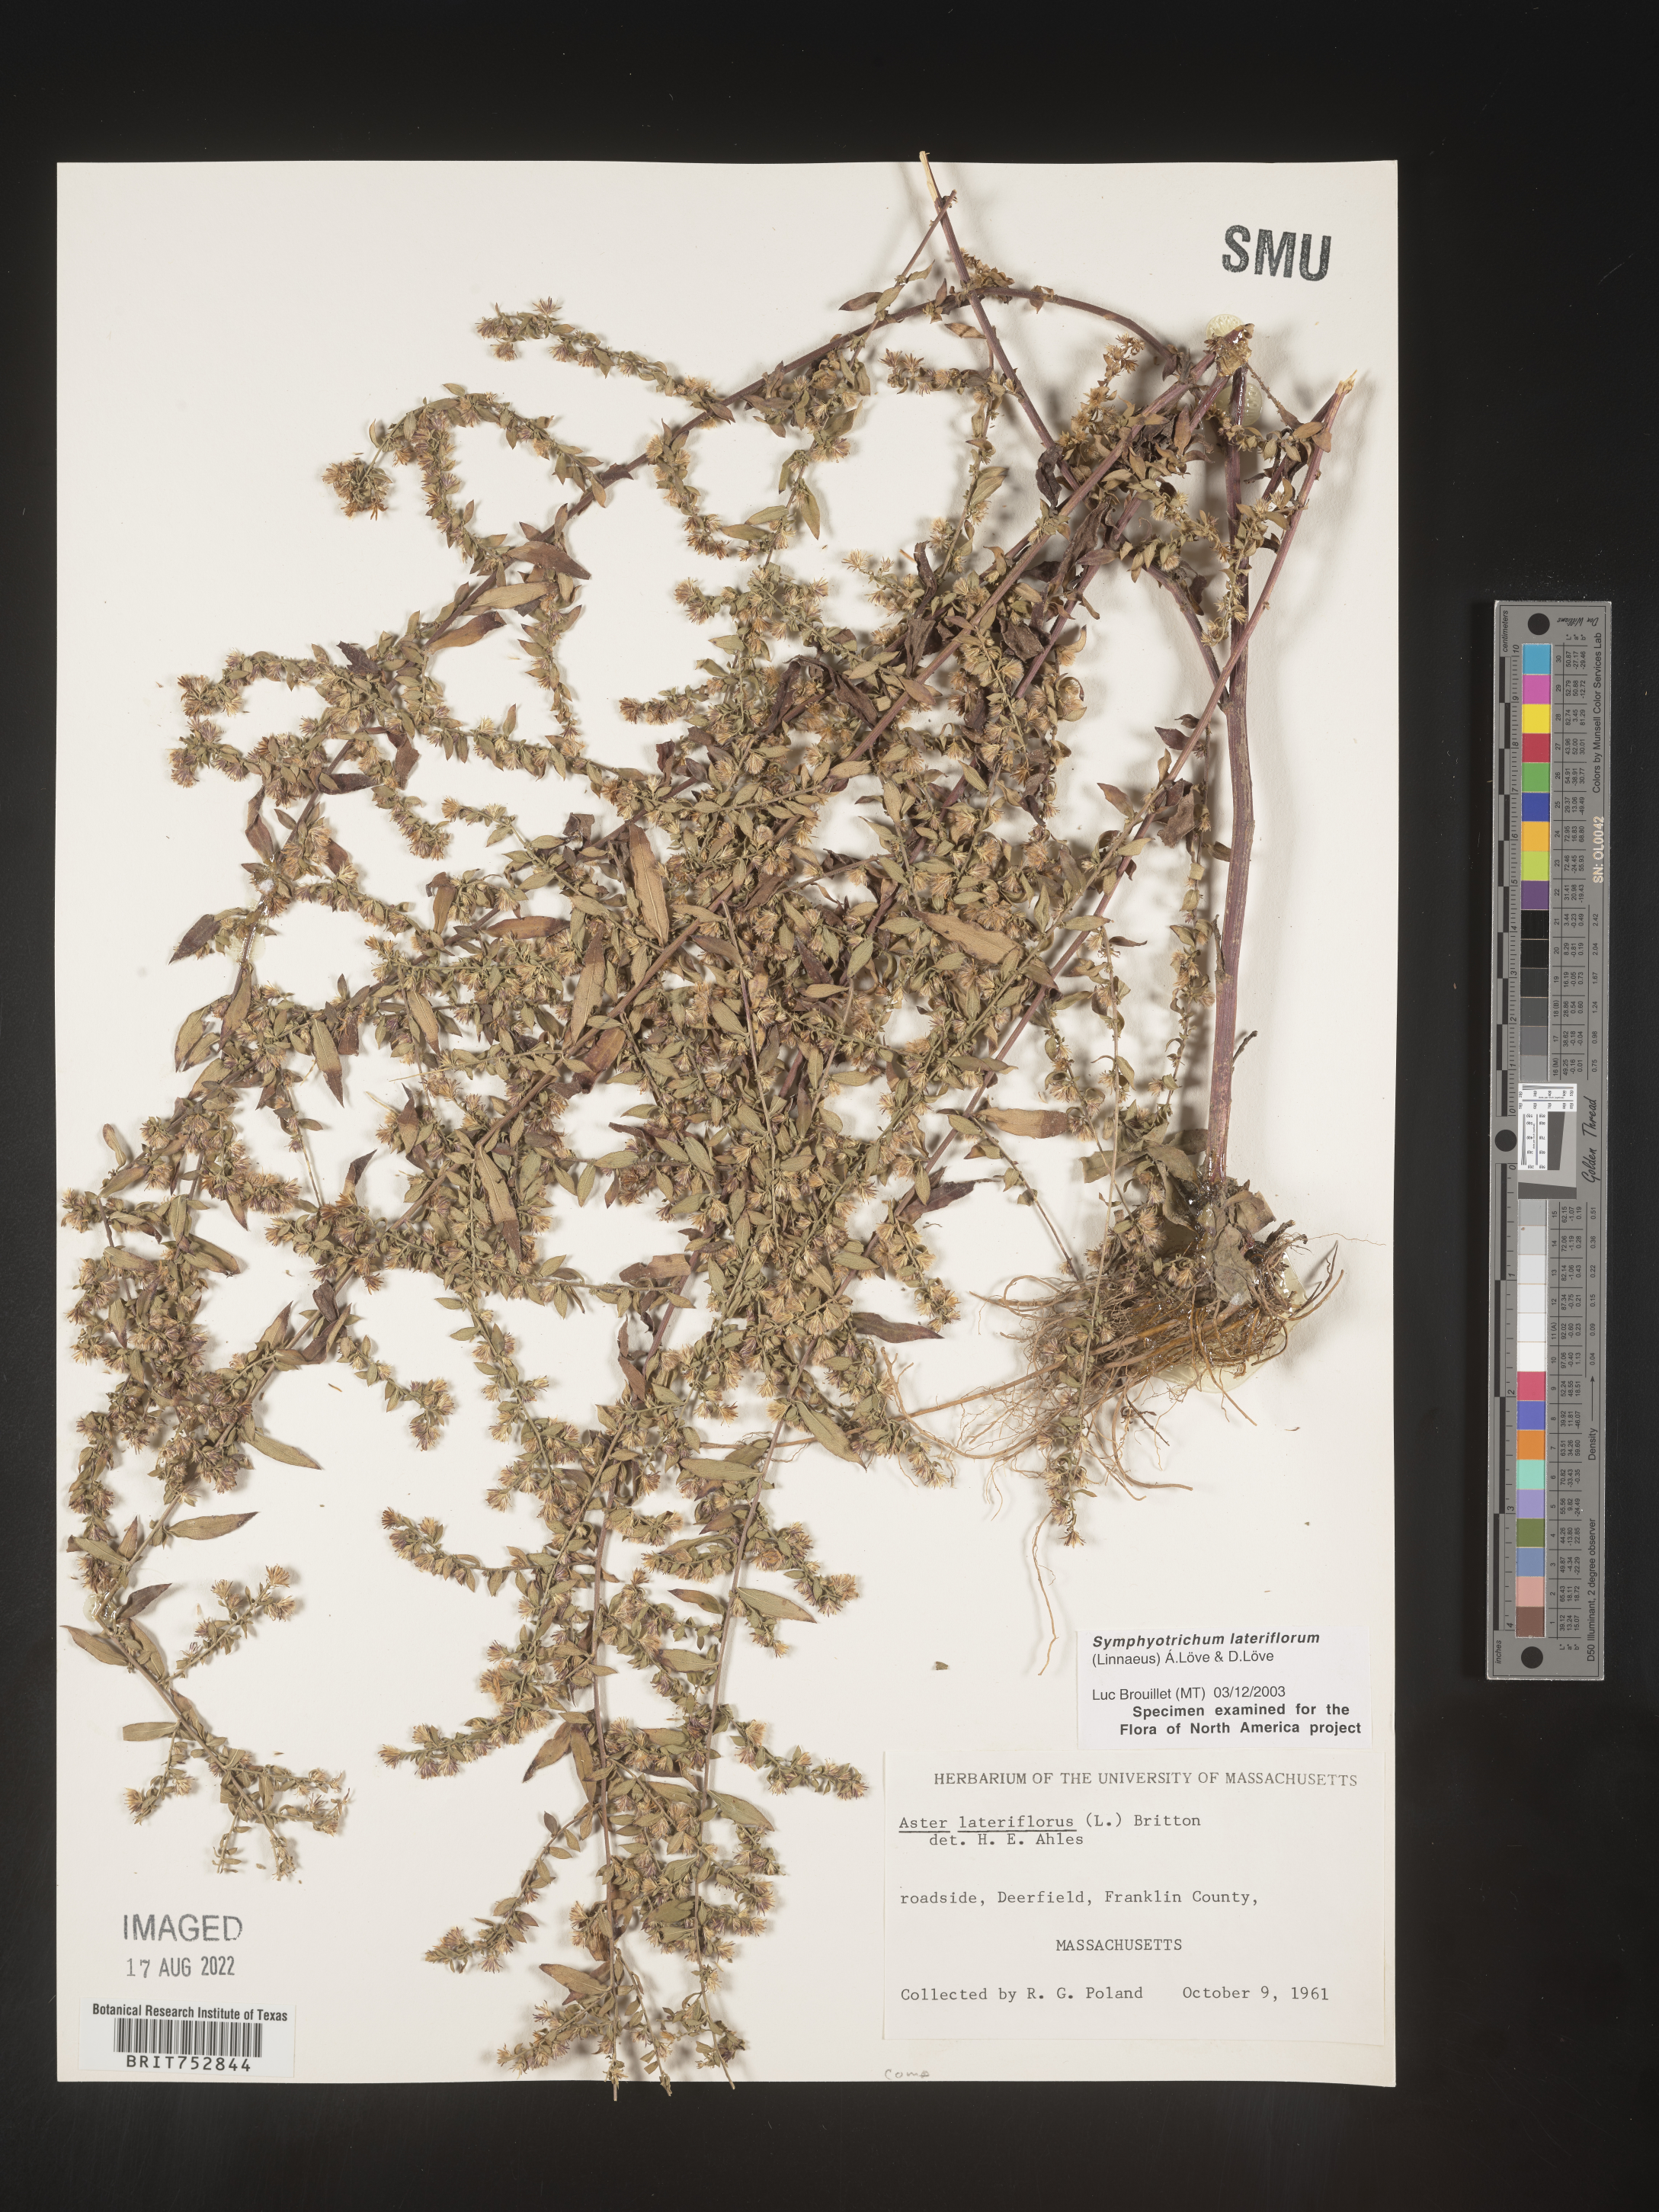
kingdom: Plantae
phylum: Tracheophyta
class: Magnoliopsida
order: Asterales
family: Asteraceae
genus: Symphyotrichum
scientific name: Symphyotrichum lateriflorum
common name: Calico aster
